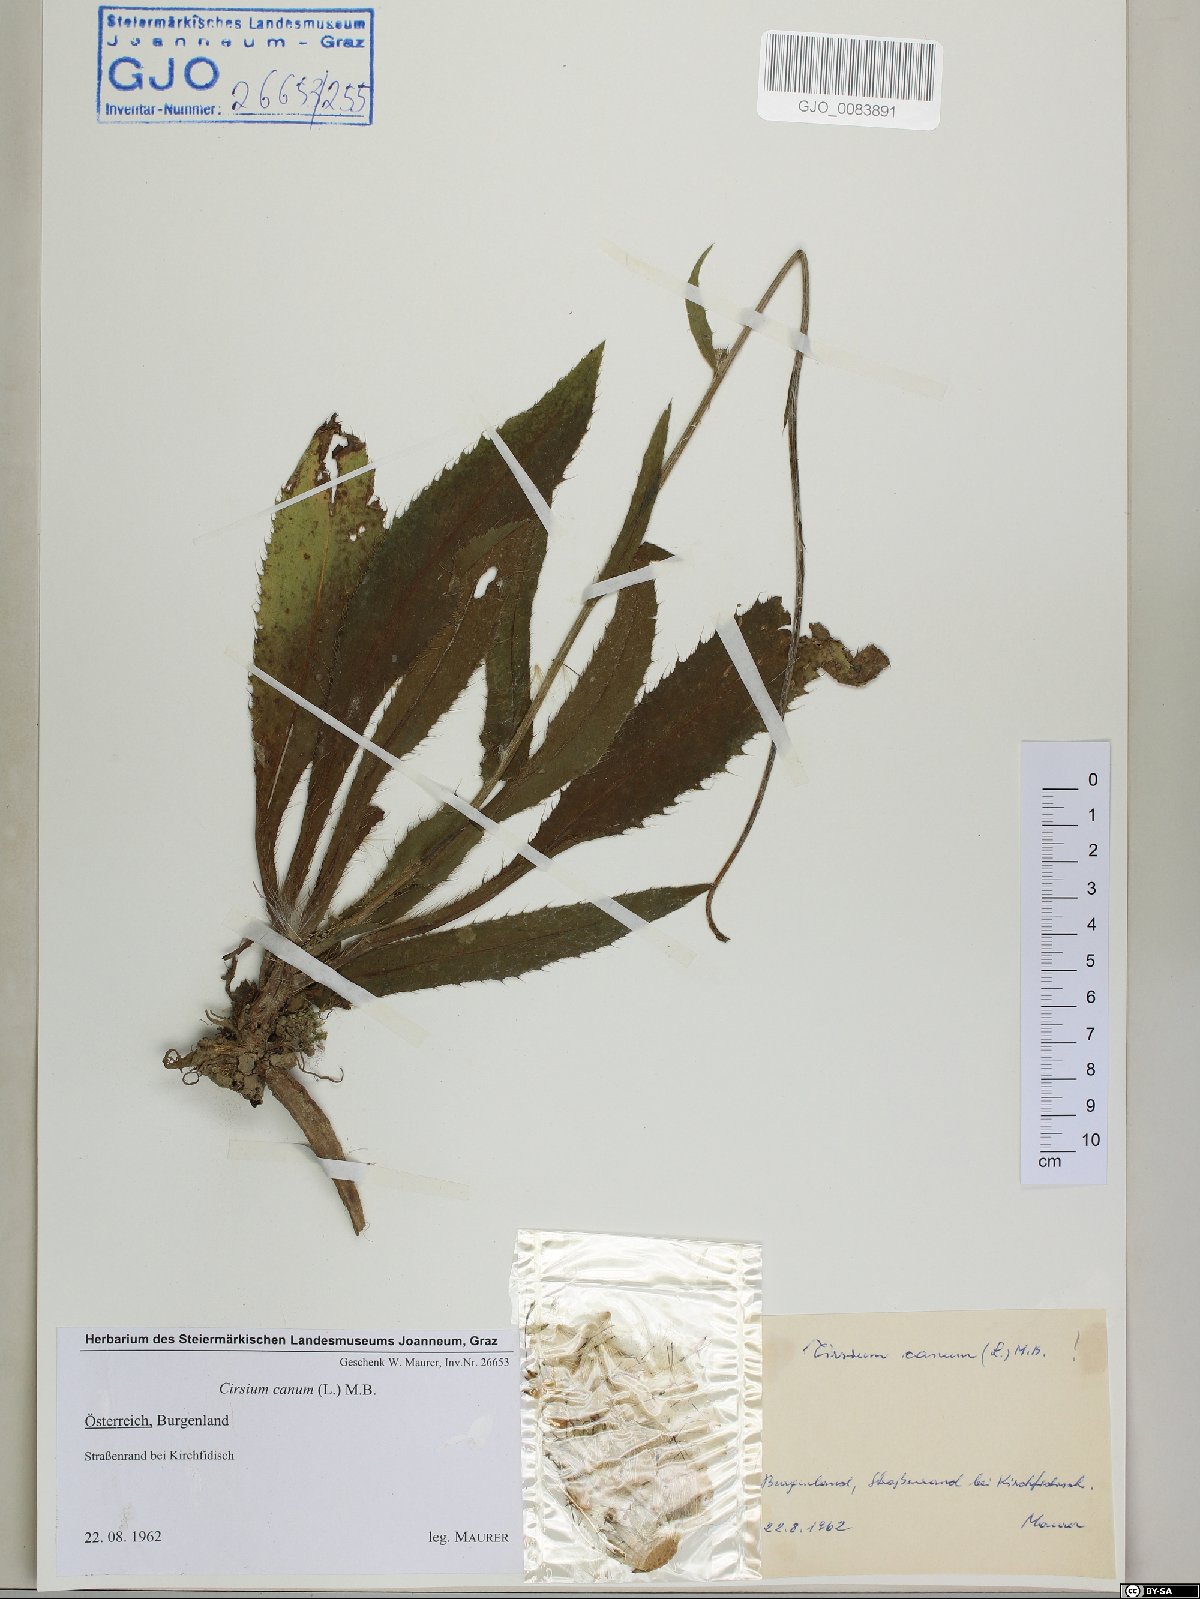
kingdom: Plantae
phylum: Tracheophyta
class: Magnoliopsida
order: Asterales
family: Asteraceae
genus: Cirsium
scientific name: Cirsium canum
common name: Queen anne's thistle
